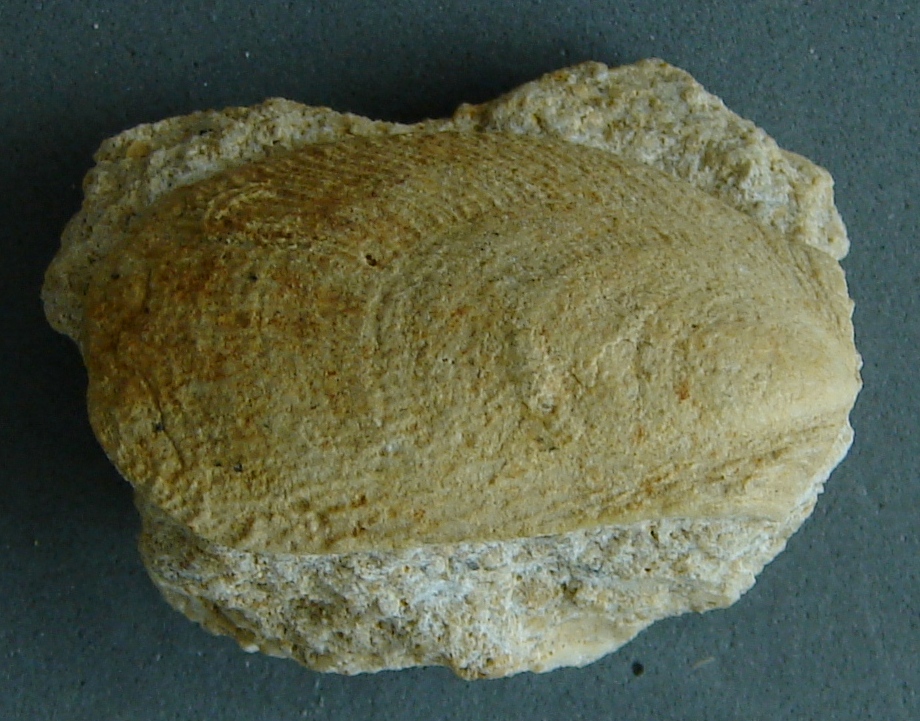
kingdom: Animalia
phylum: Mollusca
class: Bivalvia
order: Limida
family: Limidae
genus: Antiquilima
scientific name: Antiquilima nodulosa
